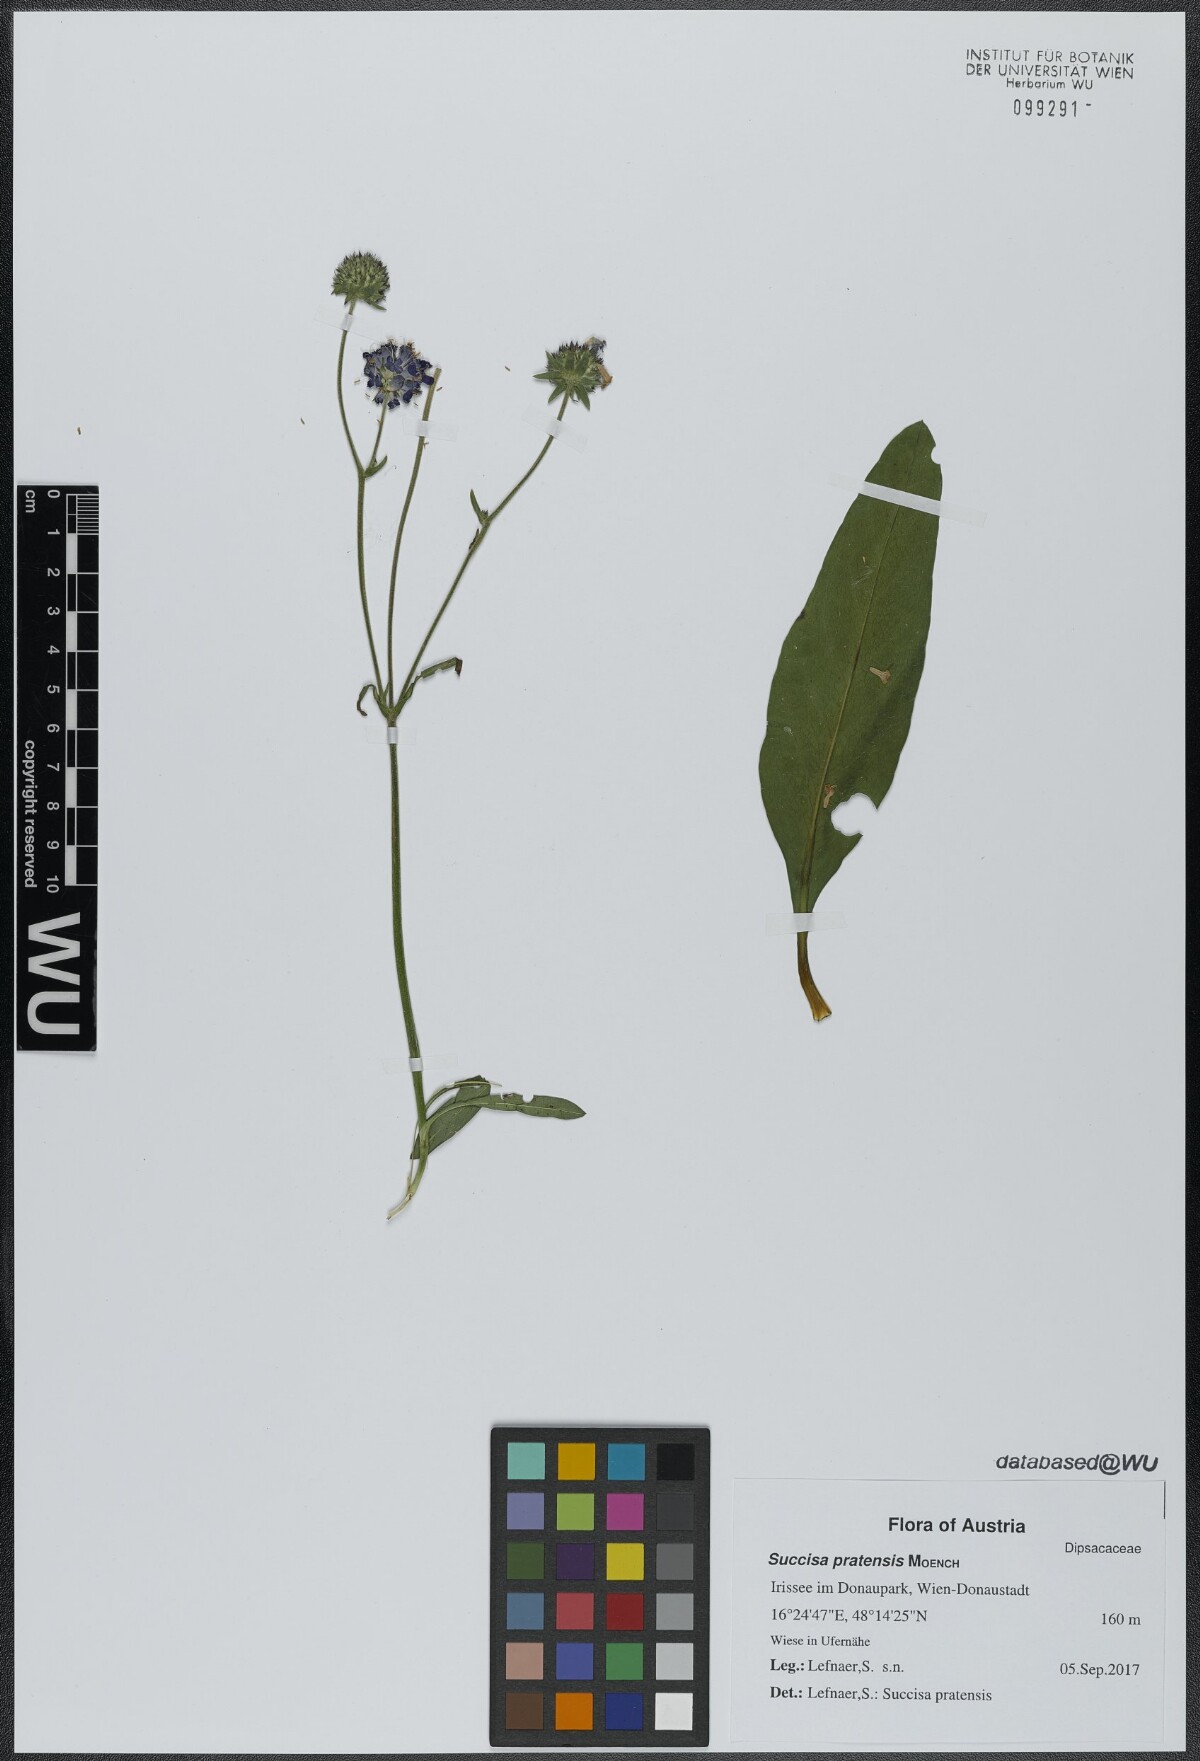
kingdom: Plantae
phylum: Tracheophyta
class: Magnoliopsida
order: Dipsacales
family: Caprifoliaceae
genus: Succisa
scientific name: Succisa pratensis
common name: Devil's-bit
